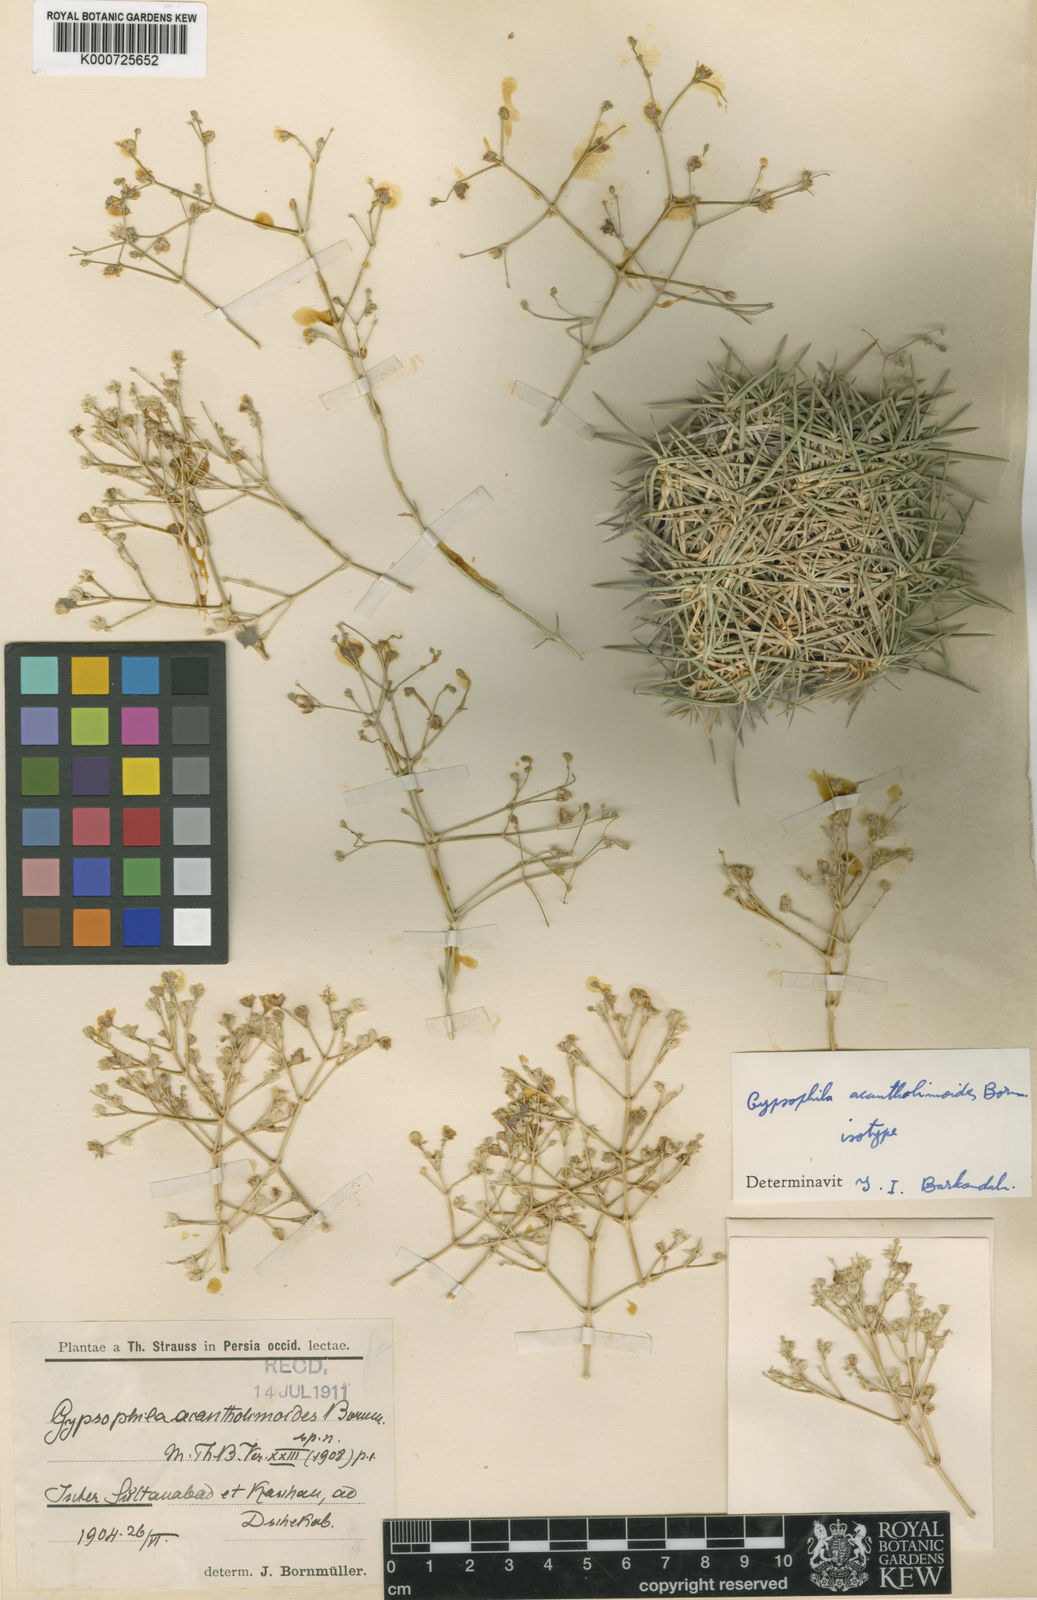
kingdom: Plantae
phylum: Tracheophyta
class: Magnoliopsida
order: Caryophyllales
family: Caryophyllaceae
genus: Gypsophila
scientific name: Gypsophila acantholimoides
